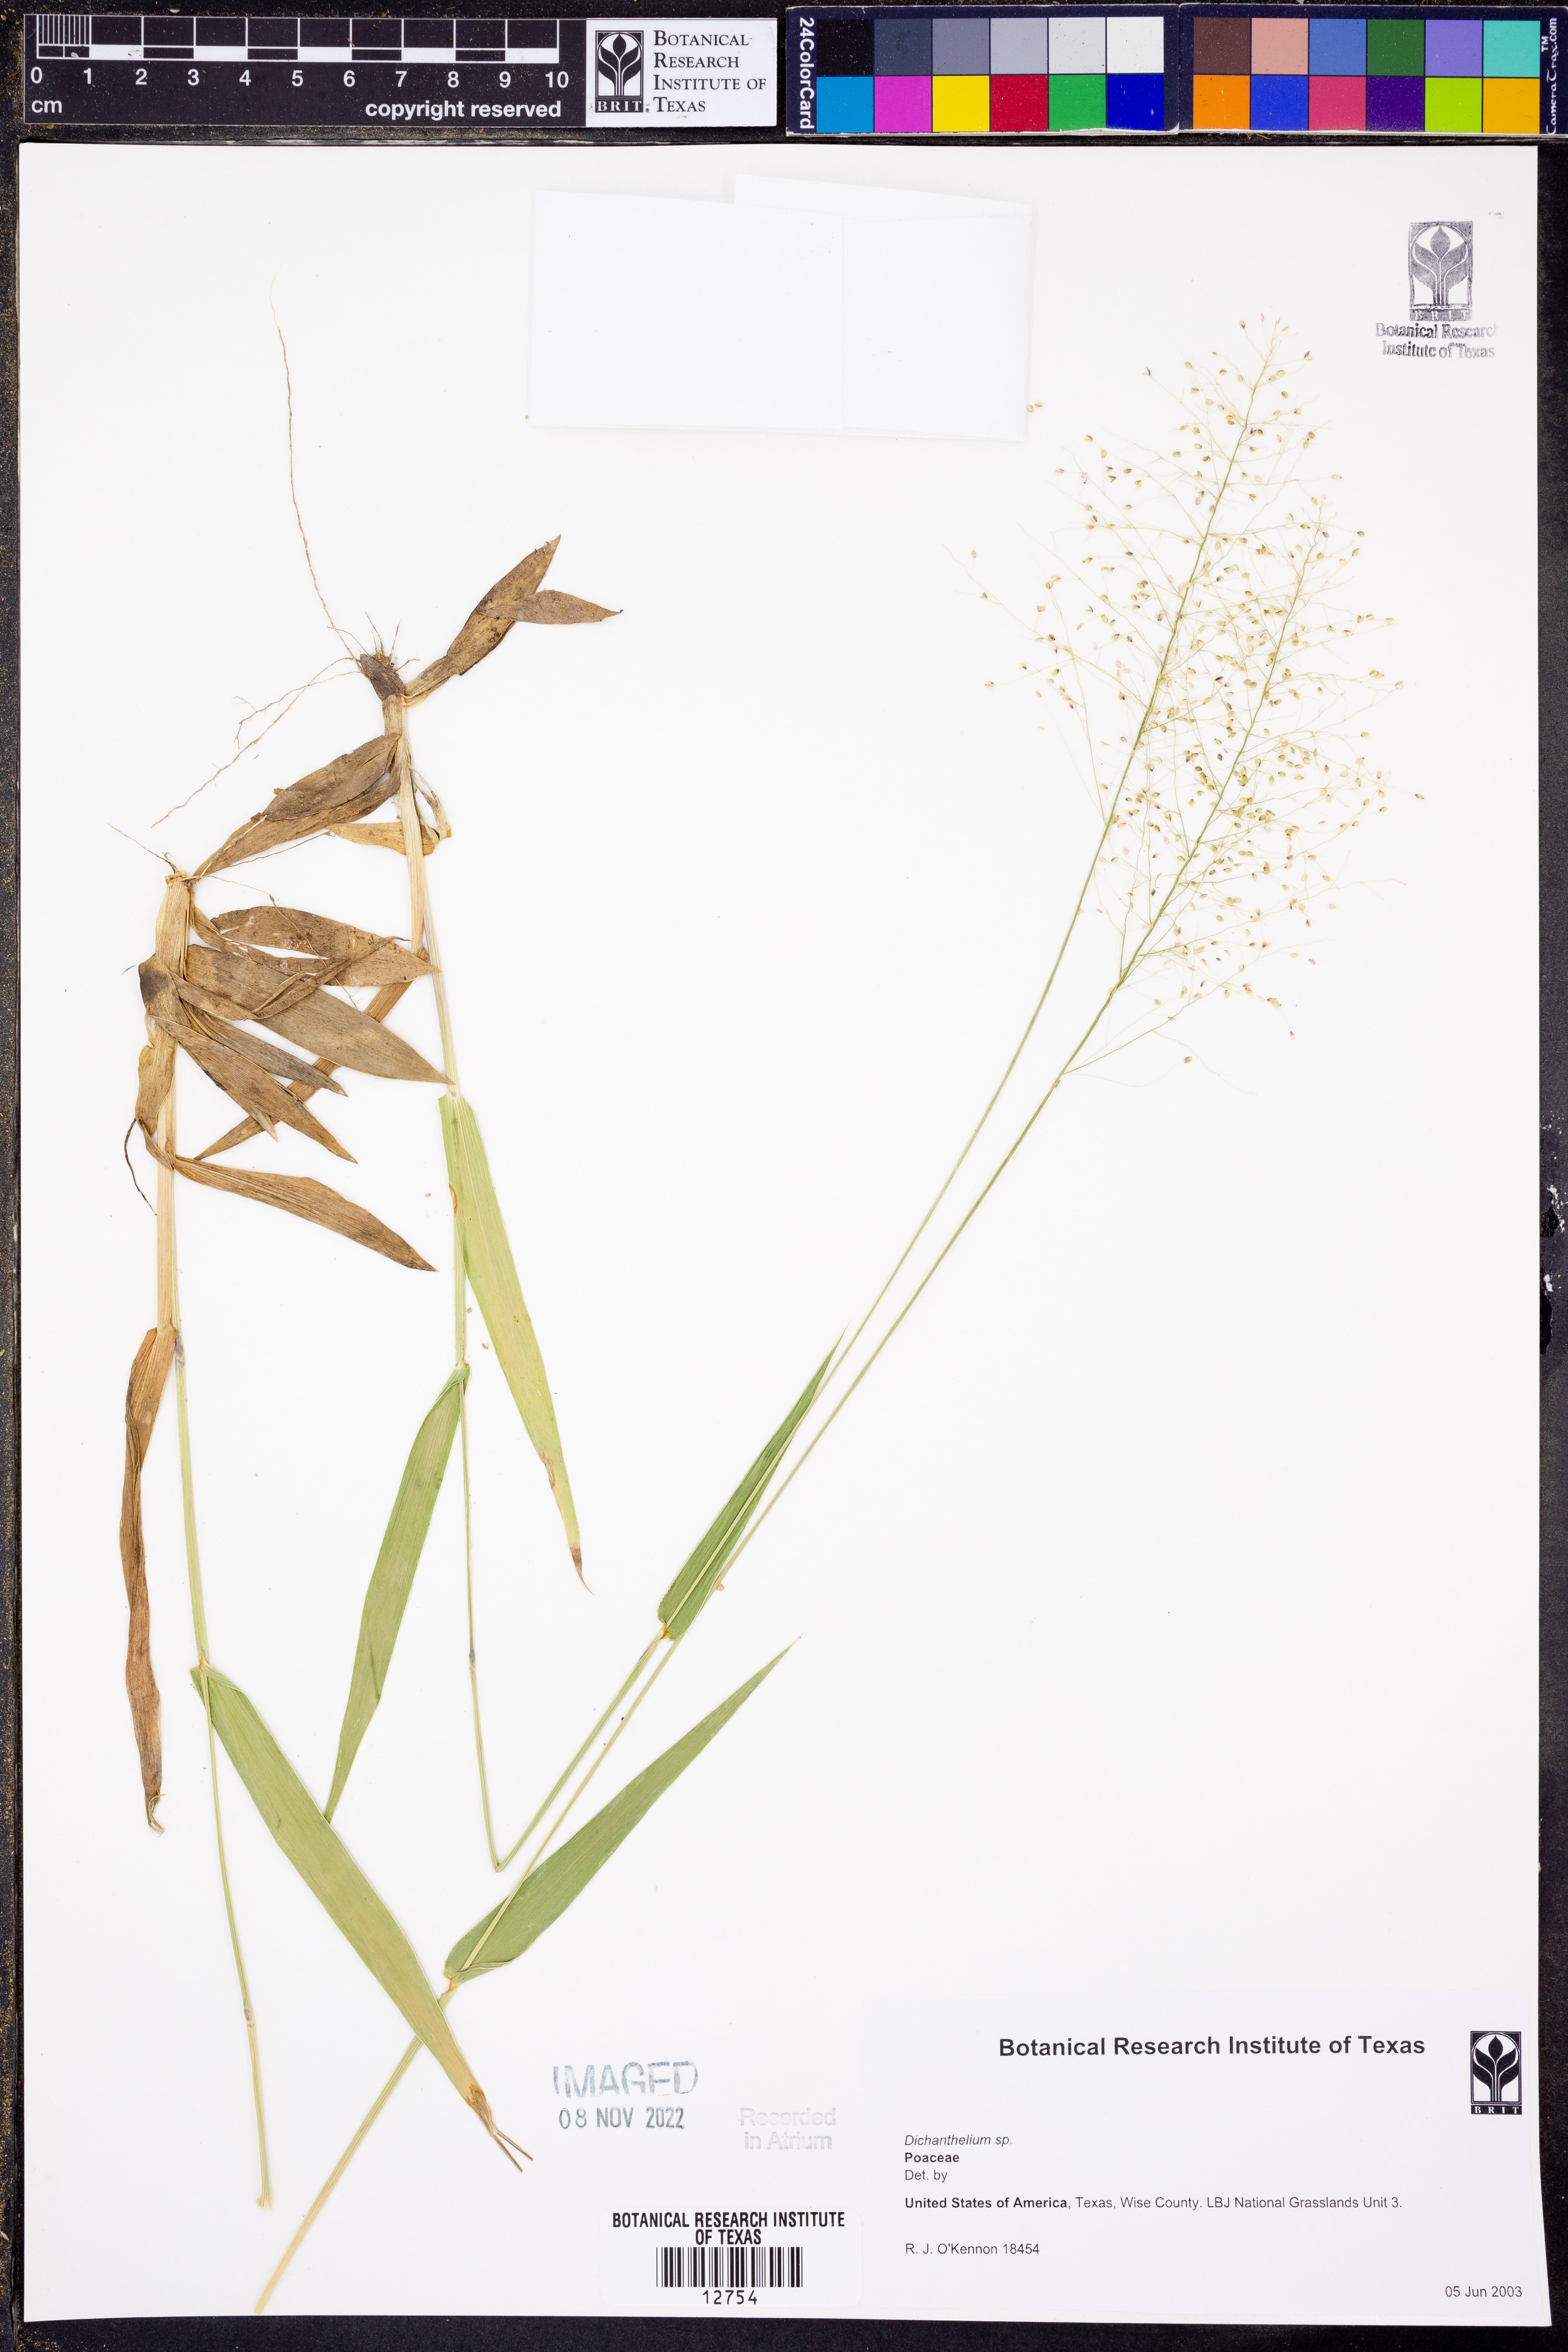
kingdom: Plantae
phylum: Tracheophyta
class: Liliopsida
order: Poales
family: Poaceae
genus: Dichanthelium
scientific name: Dichanthelium
